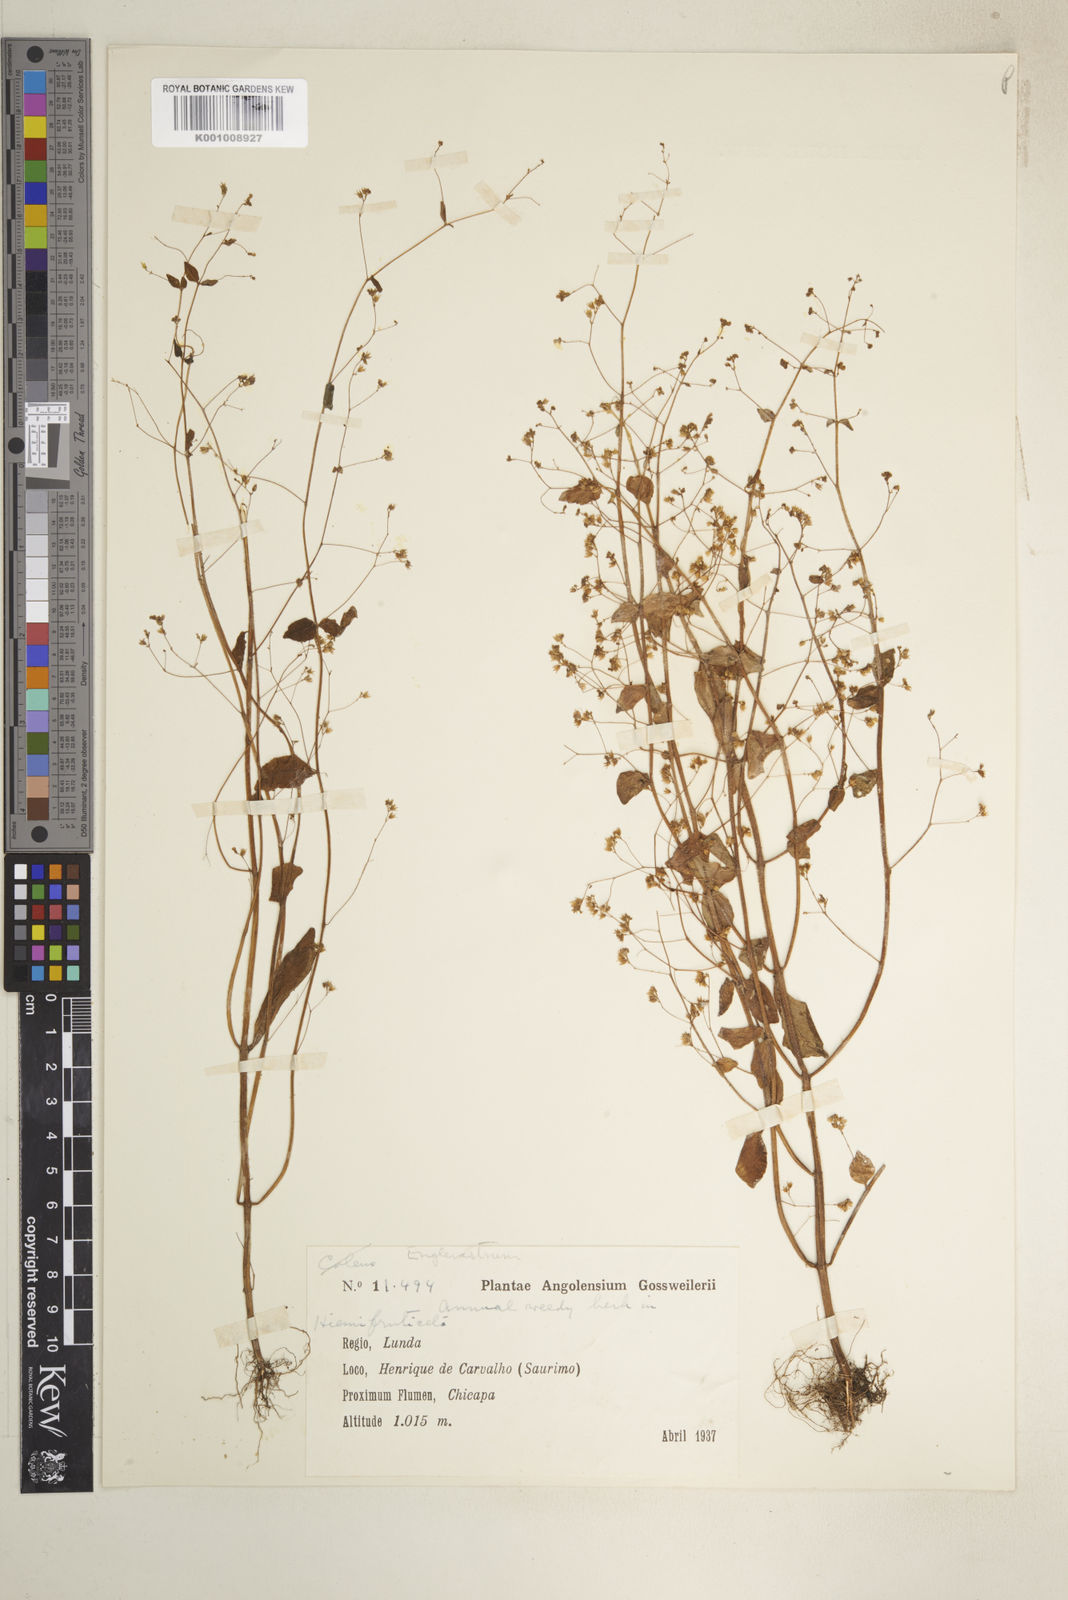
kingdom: Plantae
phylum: Tracheophyta
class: Magnoliopsida
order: Lamiales
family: Lamiaceae
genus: Coleus
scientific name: Coleus rhodesianum
